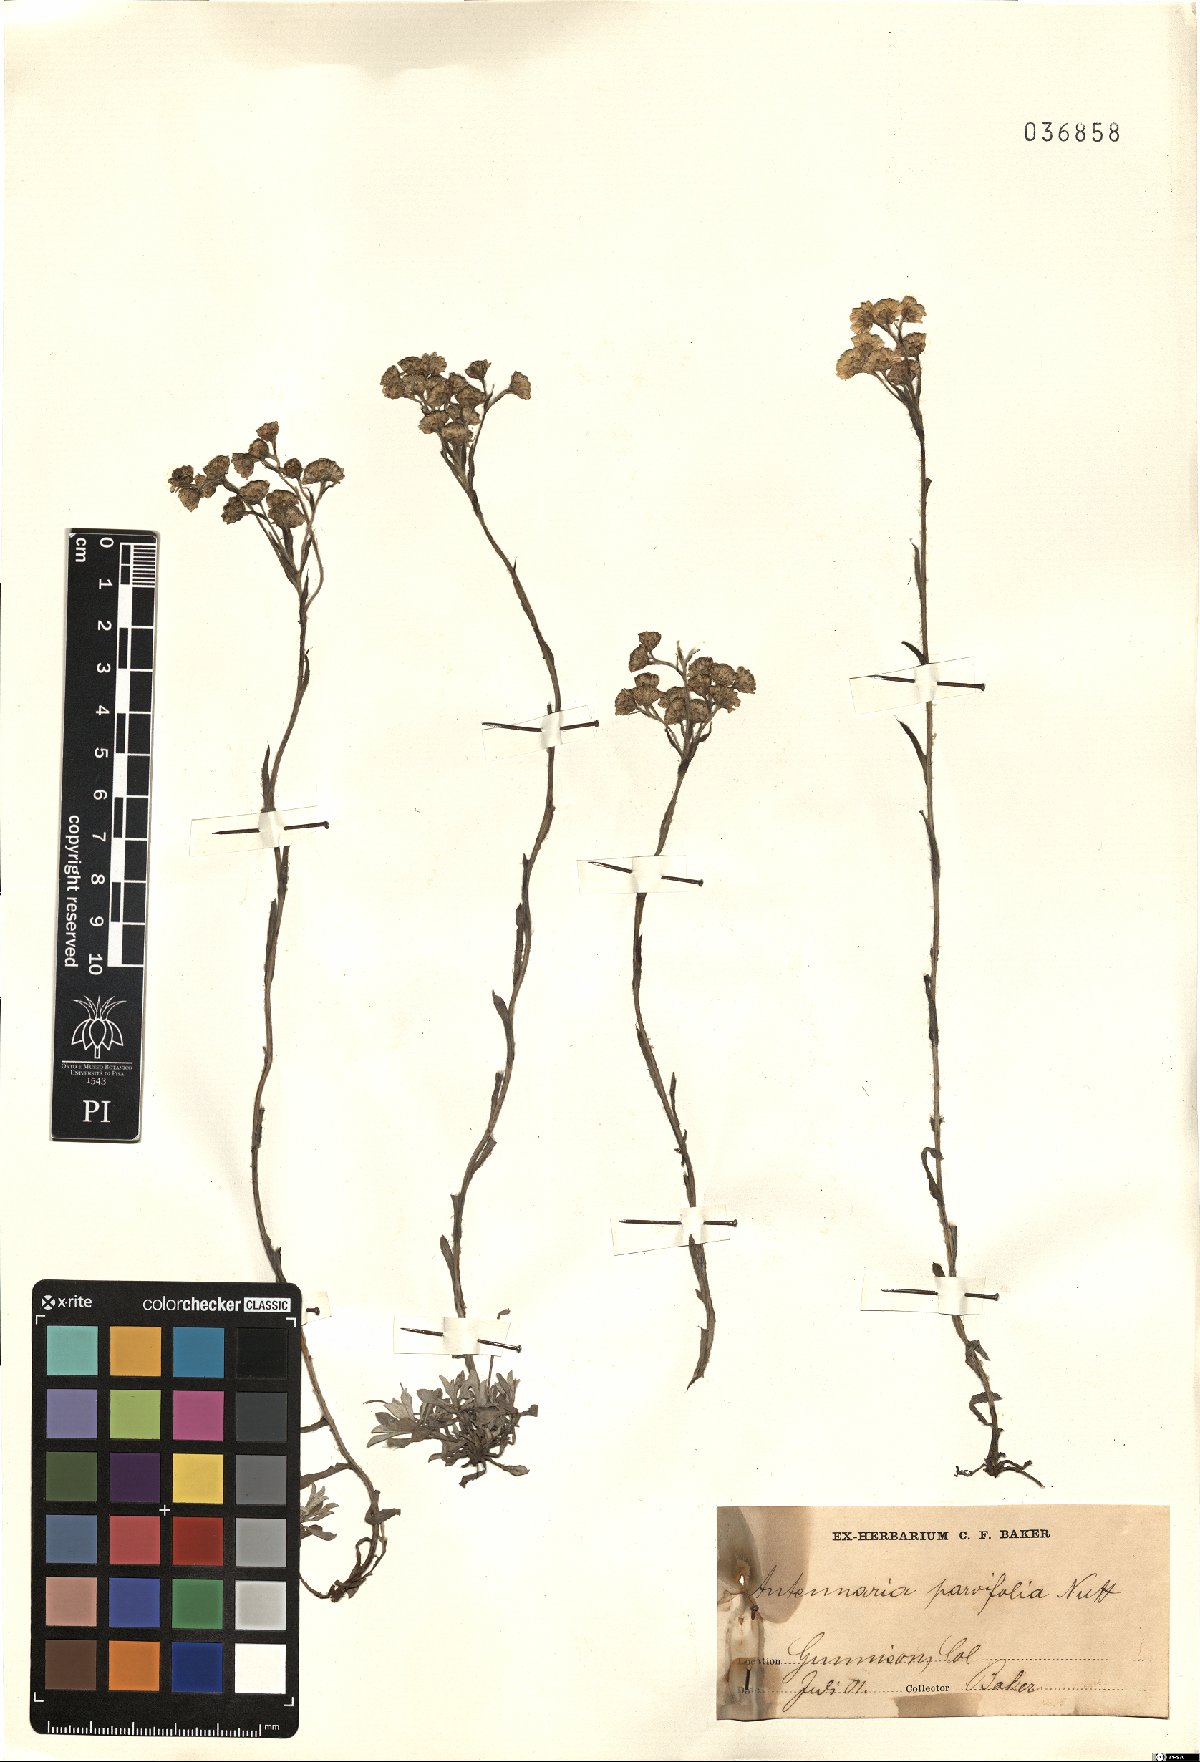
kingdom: Plantae
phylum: Tracheophyta
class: Magnoliopsida
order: Asterales
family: Asteraceae
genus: Antennaria
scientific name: Antennaria parvifolia
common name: Nuttall's pussytoes
